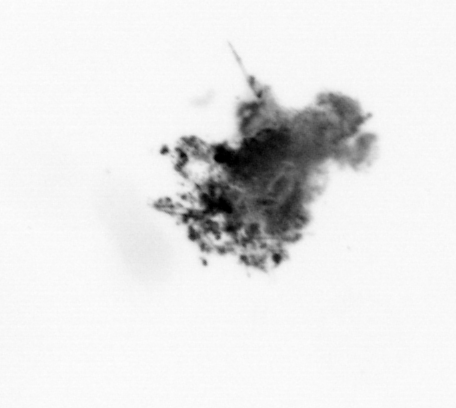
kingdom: Animalia
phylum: Arthropoda
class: Malacostraca
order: Decapoda
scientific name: Decapoda
